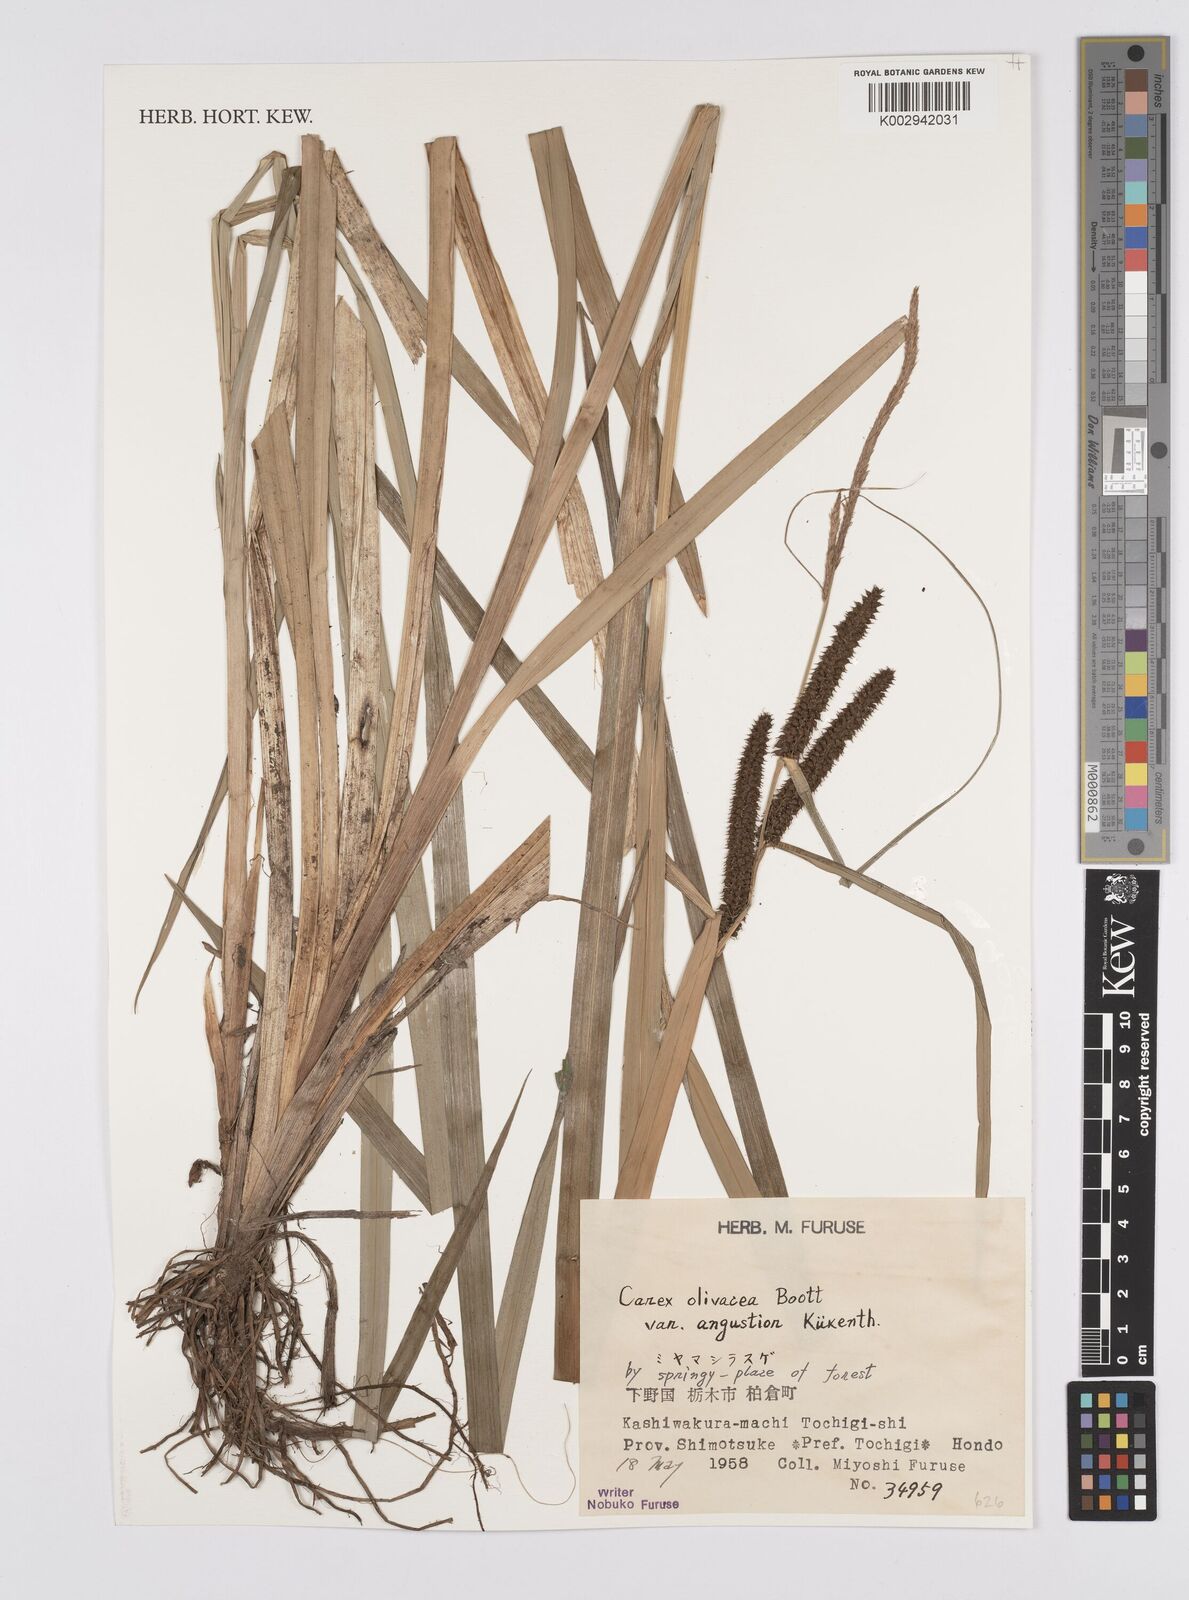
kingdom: Plantae
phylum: Tracheophyta
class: Liliopsida
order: Poales
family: Cyperaceae
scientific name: Cyperaceae
